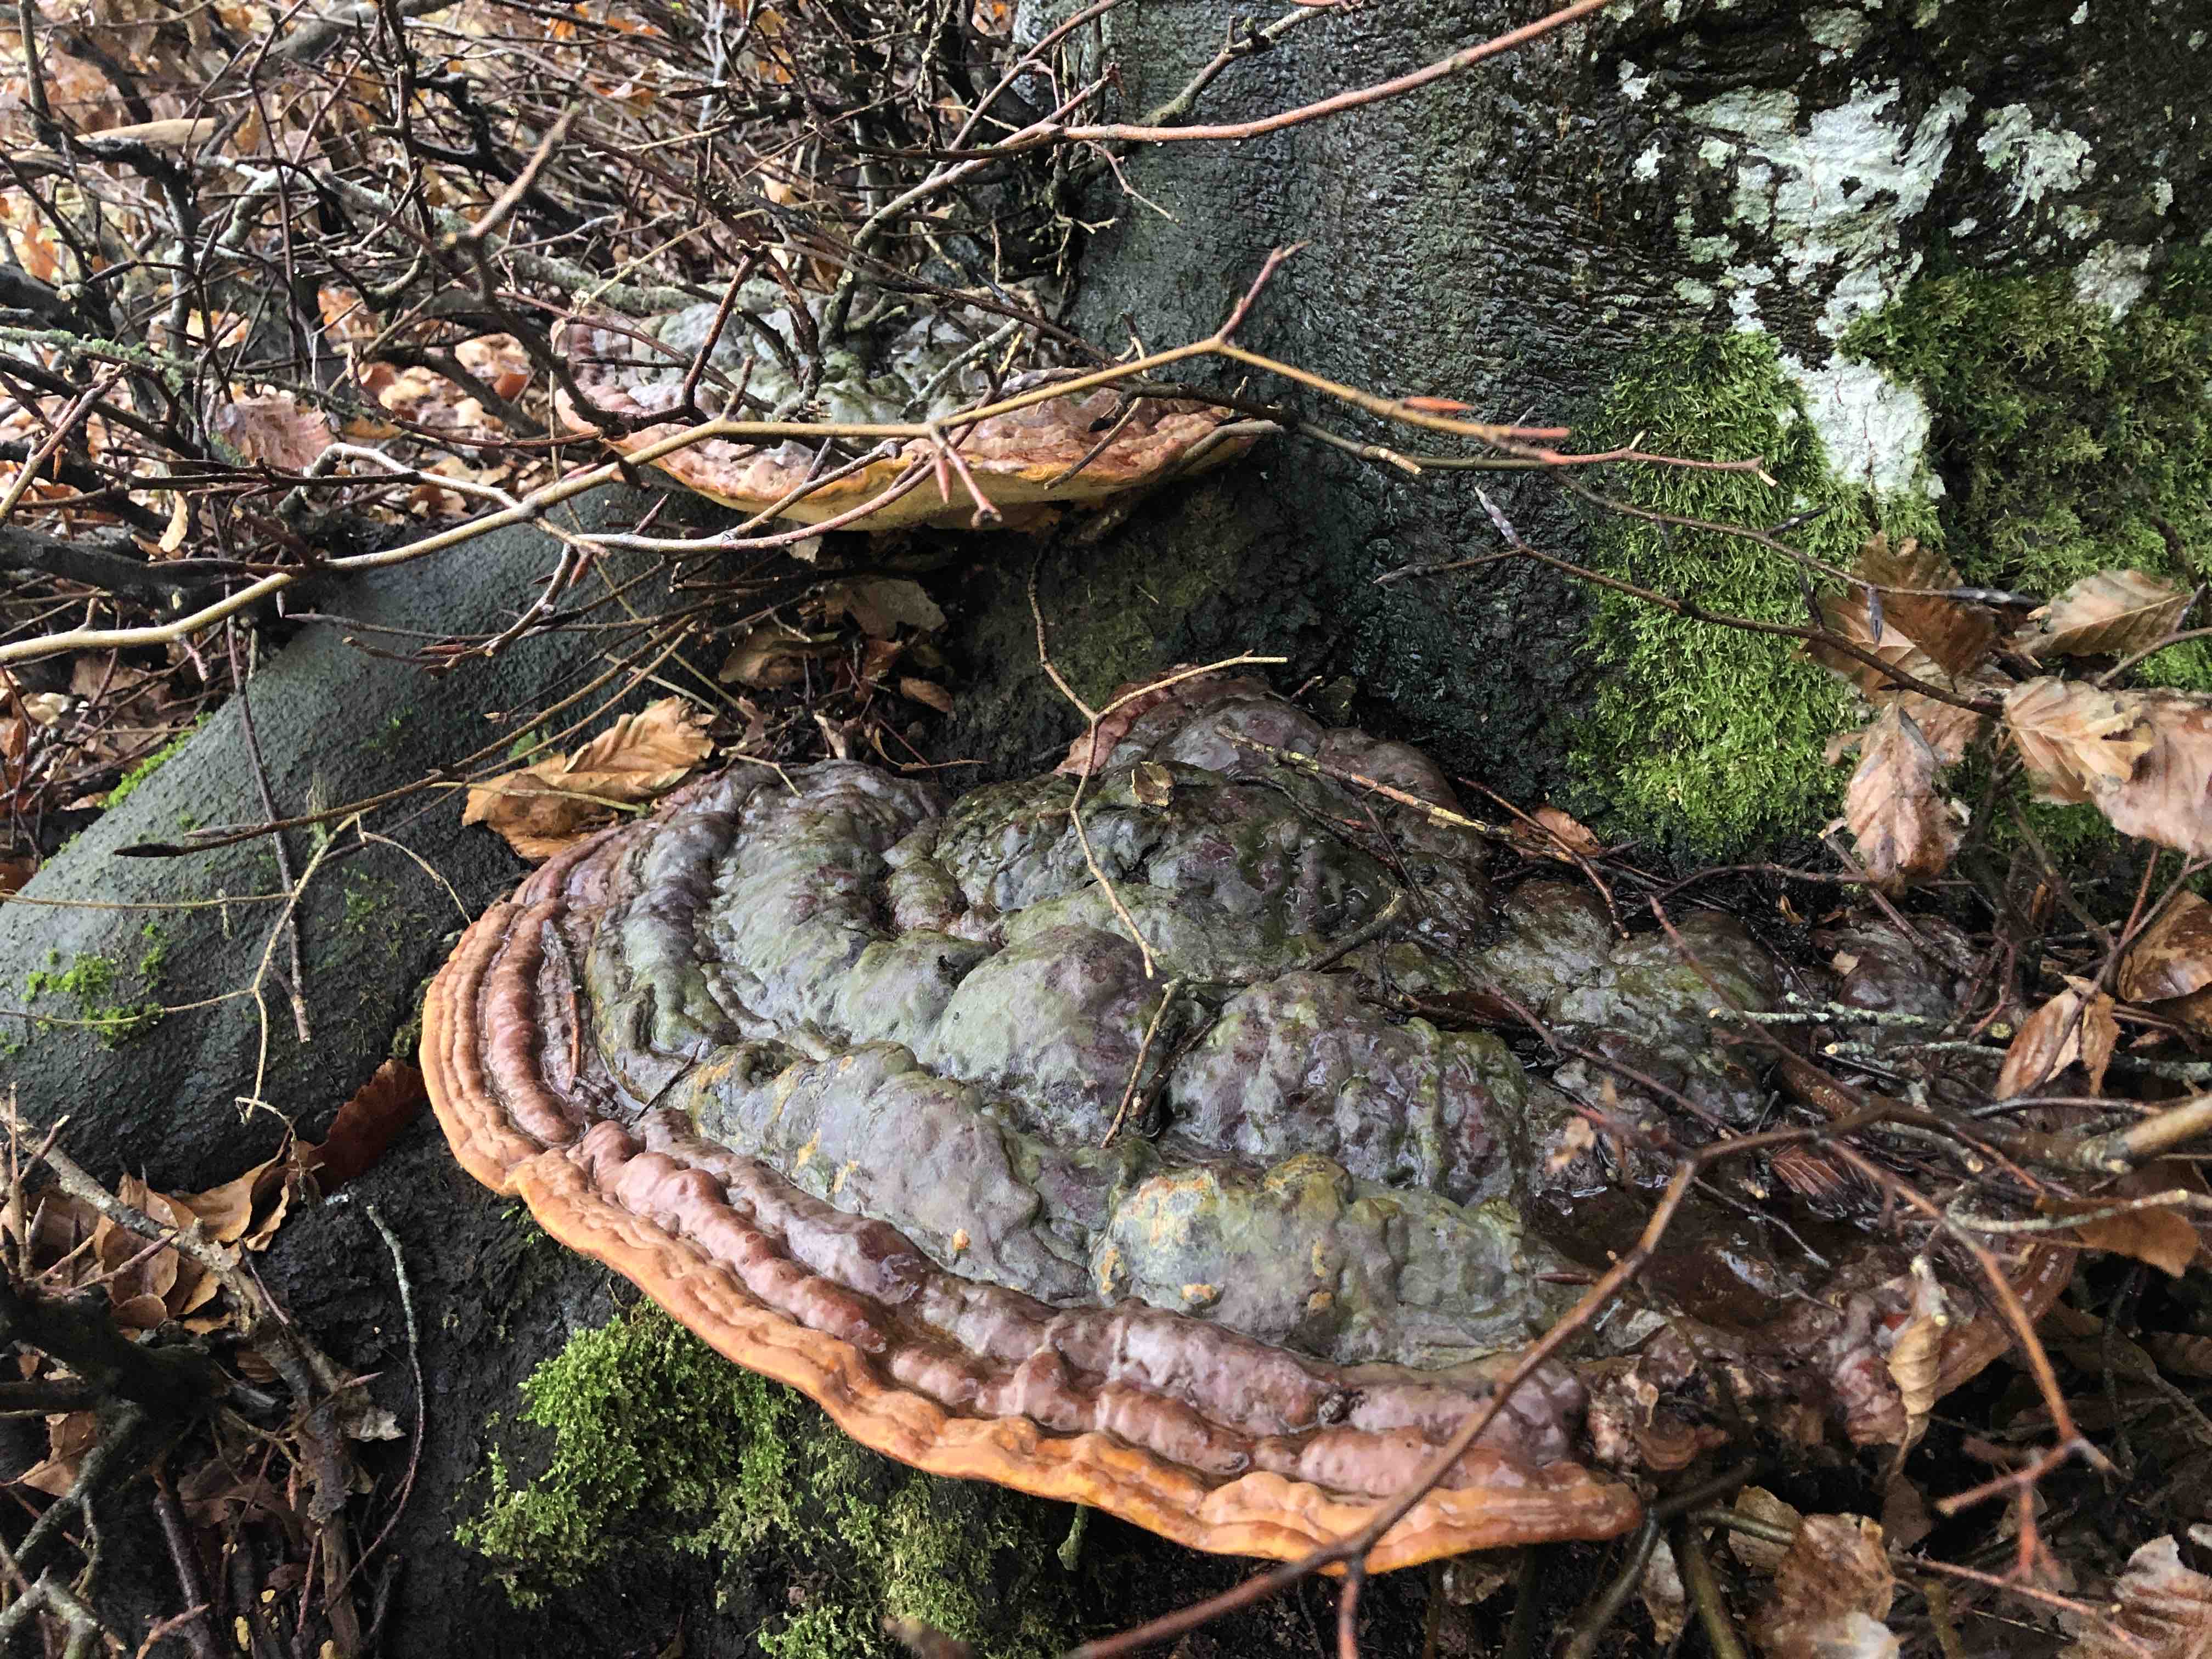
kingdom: Fungi
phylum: Basidiomycota
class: Agaricomycetes
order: Polyporales
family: Polyporaceae
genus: Ganoderma
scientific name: Ganoderma pfeifferi
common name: kobberrød lakporesvamp
